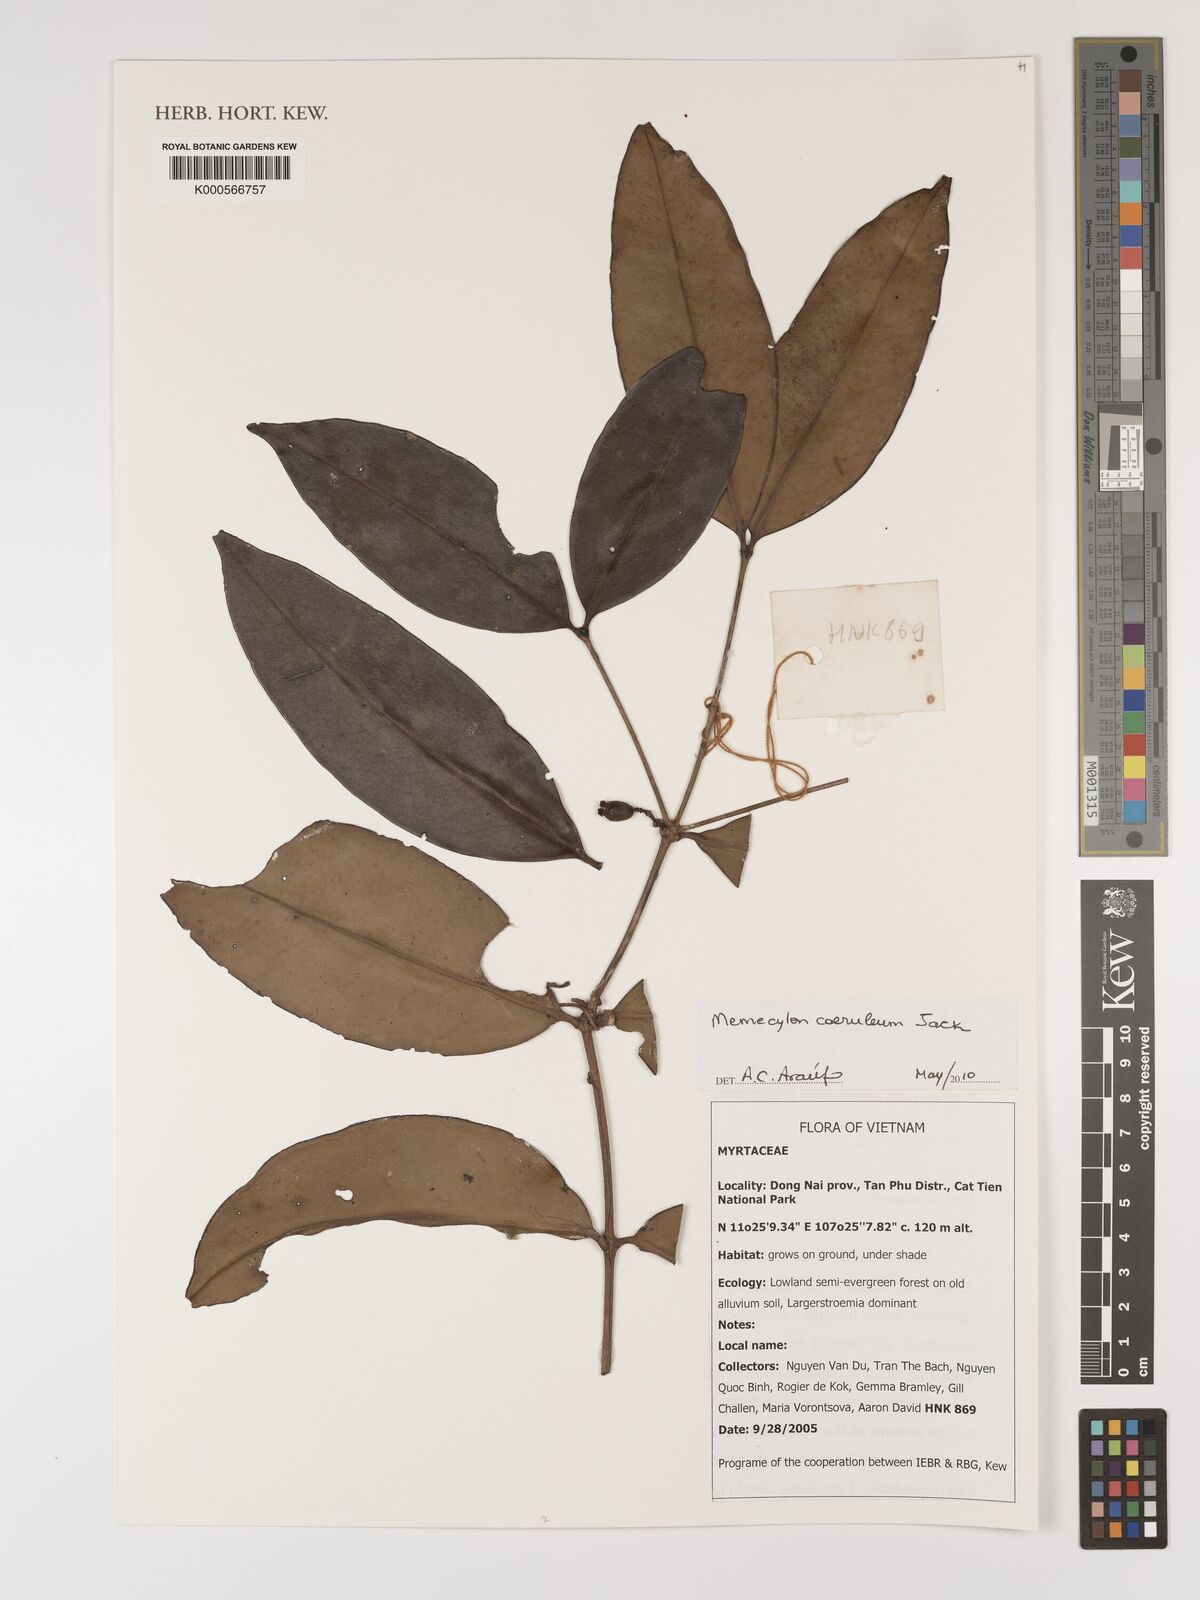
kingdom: Plantae
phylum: Tracheophyta
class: Magnoliopsida
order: Myrtales
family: Melastomataceae
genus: Memecylon
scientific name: Memecylon
